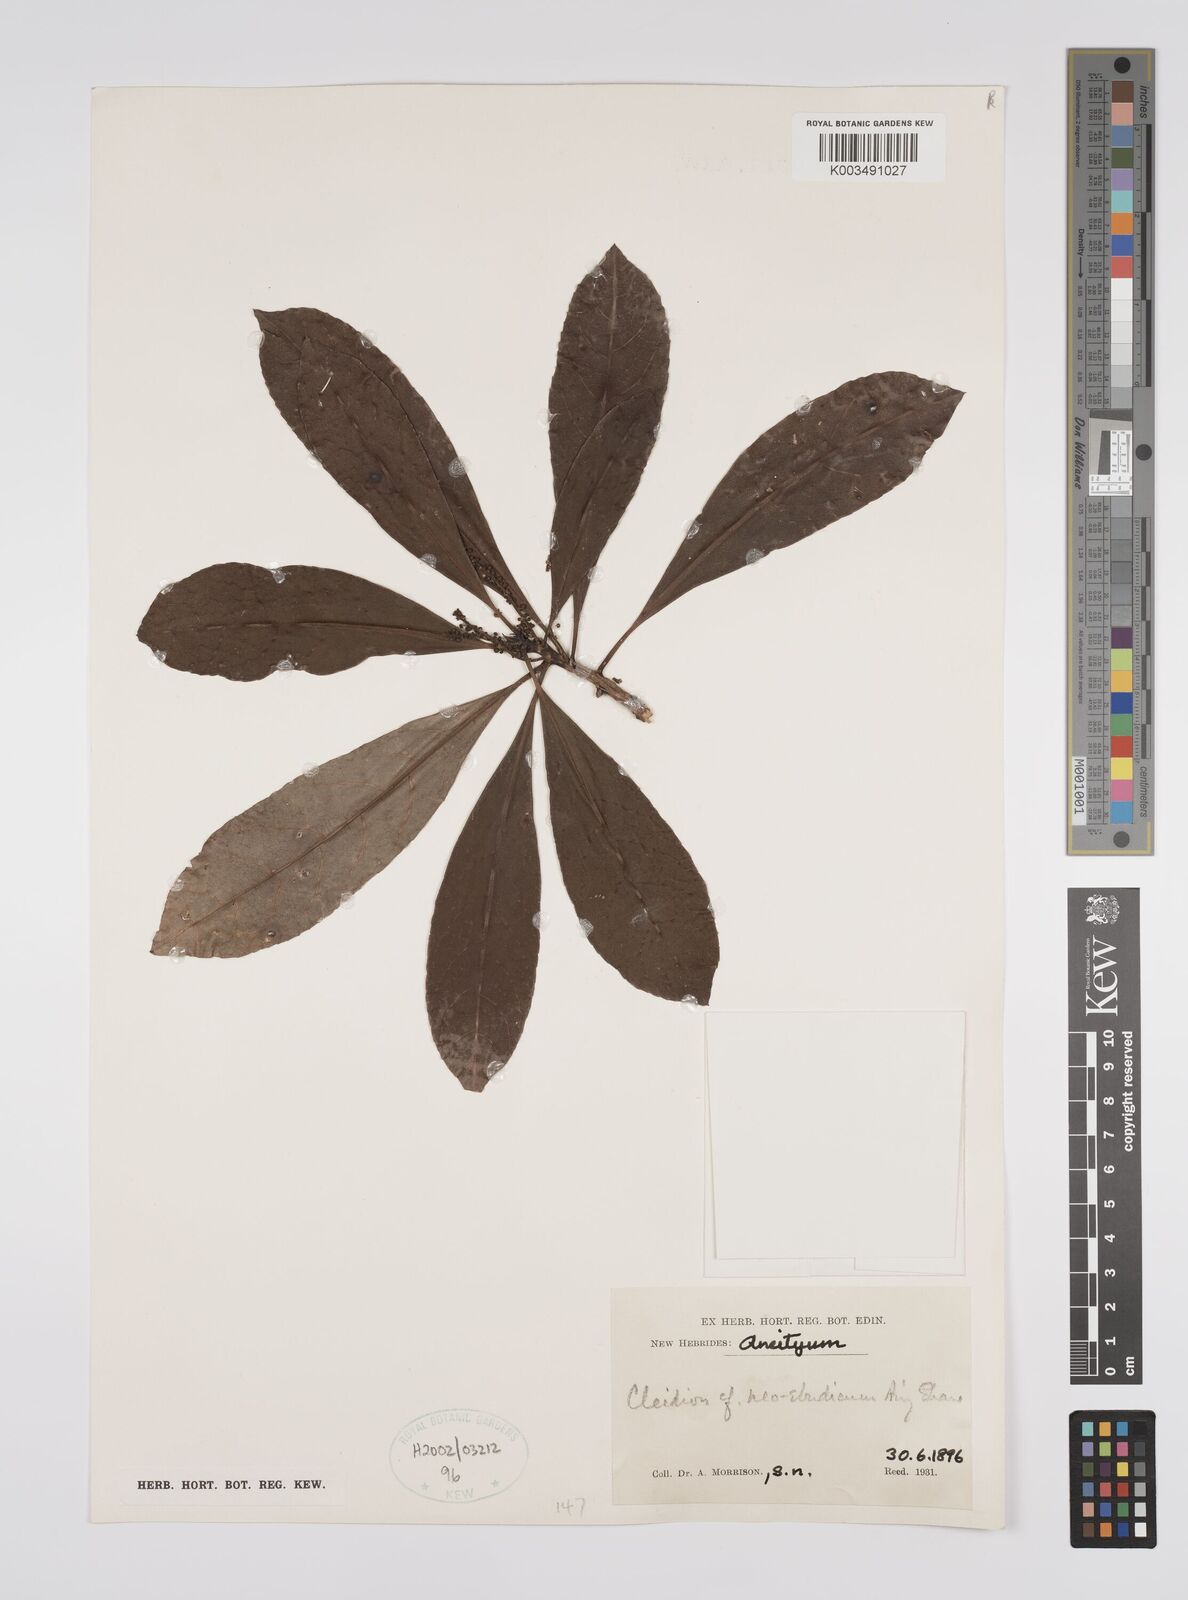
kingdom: Plantae
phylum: Tracheophyta
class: Magnoliopsida
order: Malpighiales
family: Euphorbiaceae
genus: Cleidion
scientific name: Cleidion neoebudicum
